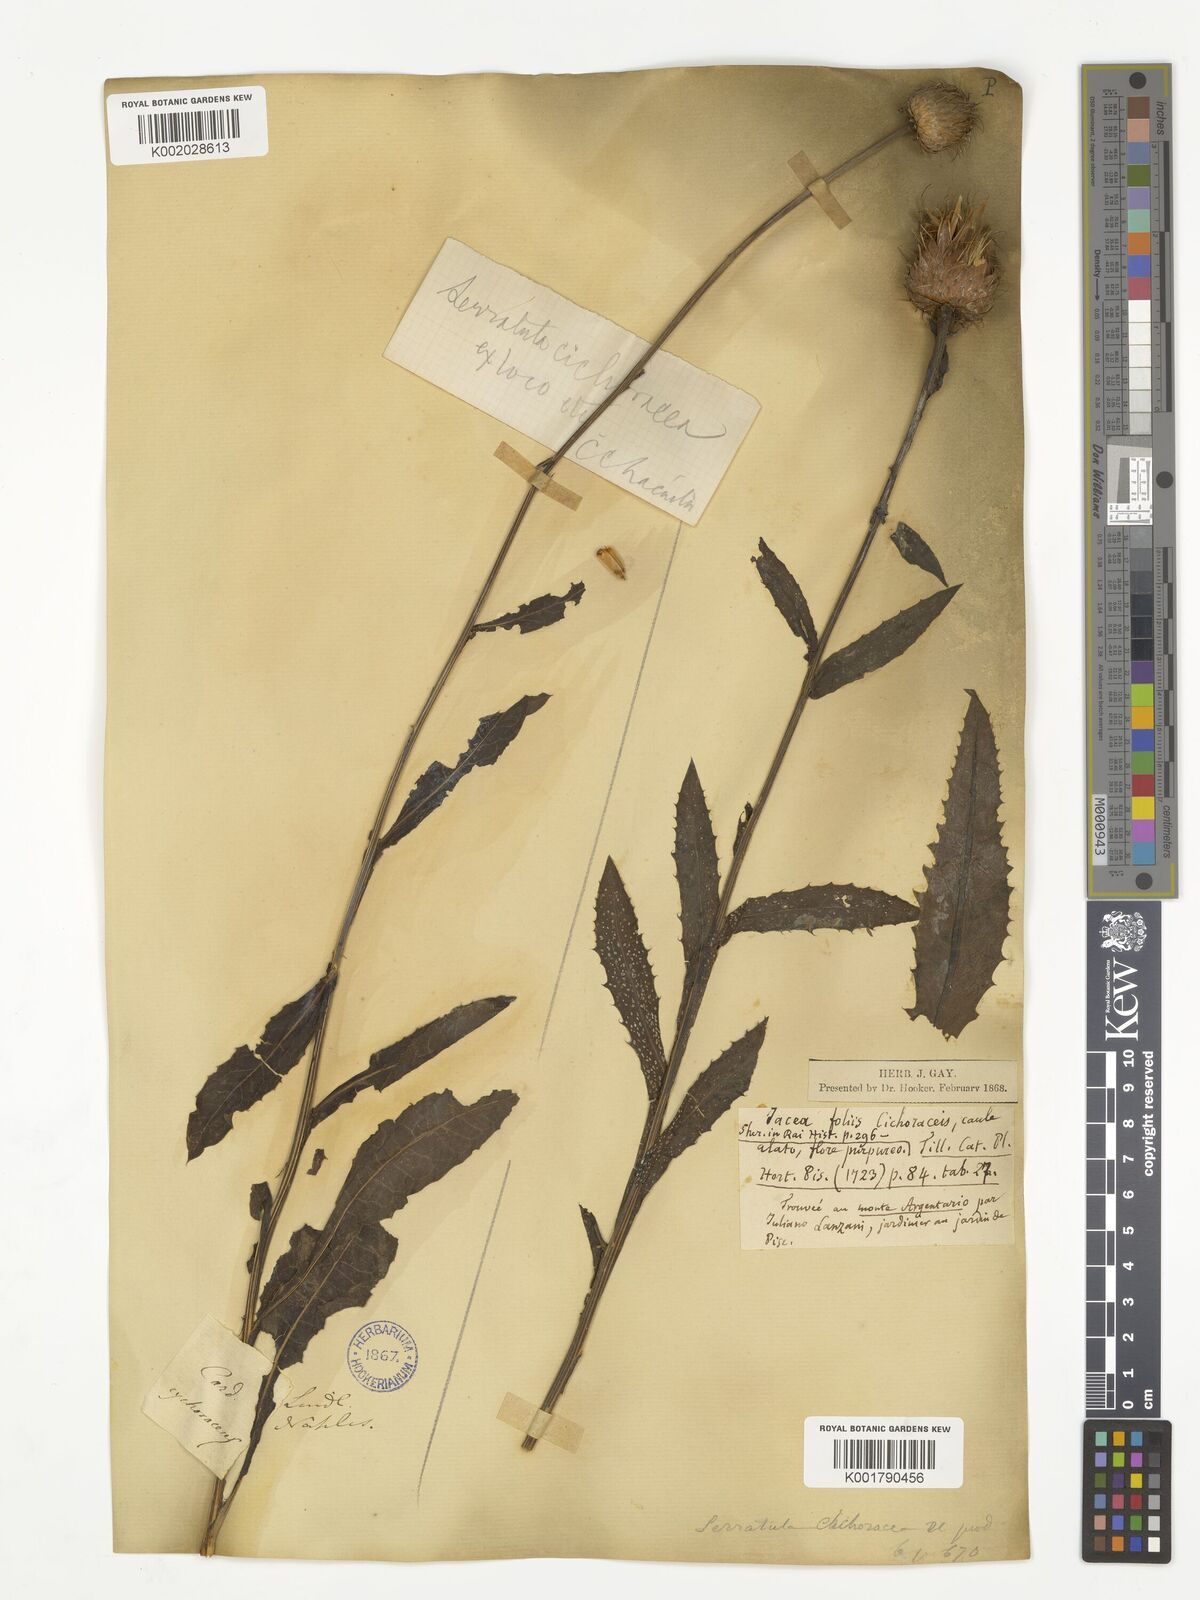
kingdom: Plantae
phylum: Tracheophyta
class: Magnoliopsida
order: Asterales
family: Asteraceae
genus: Klasea
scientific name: Klasea flavescens
